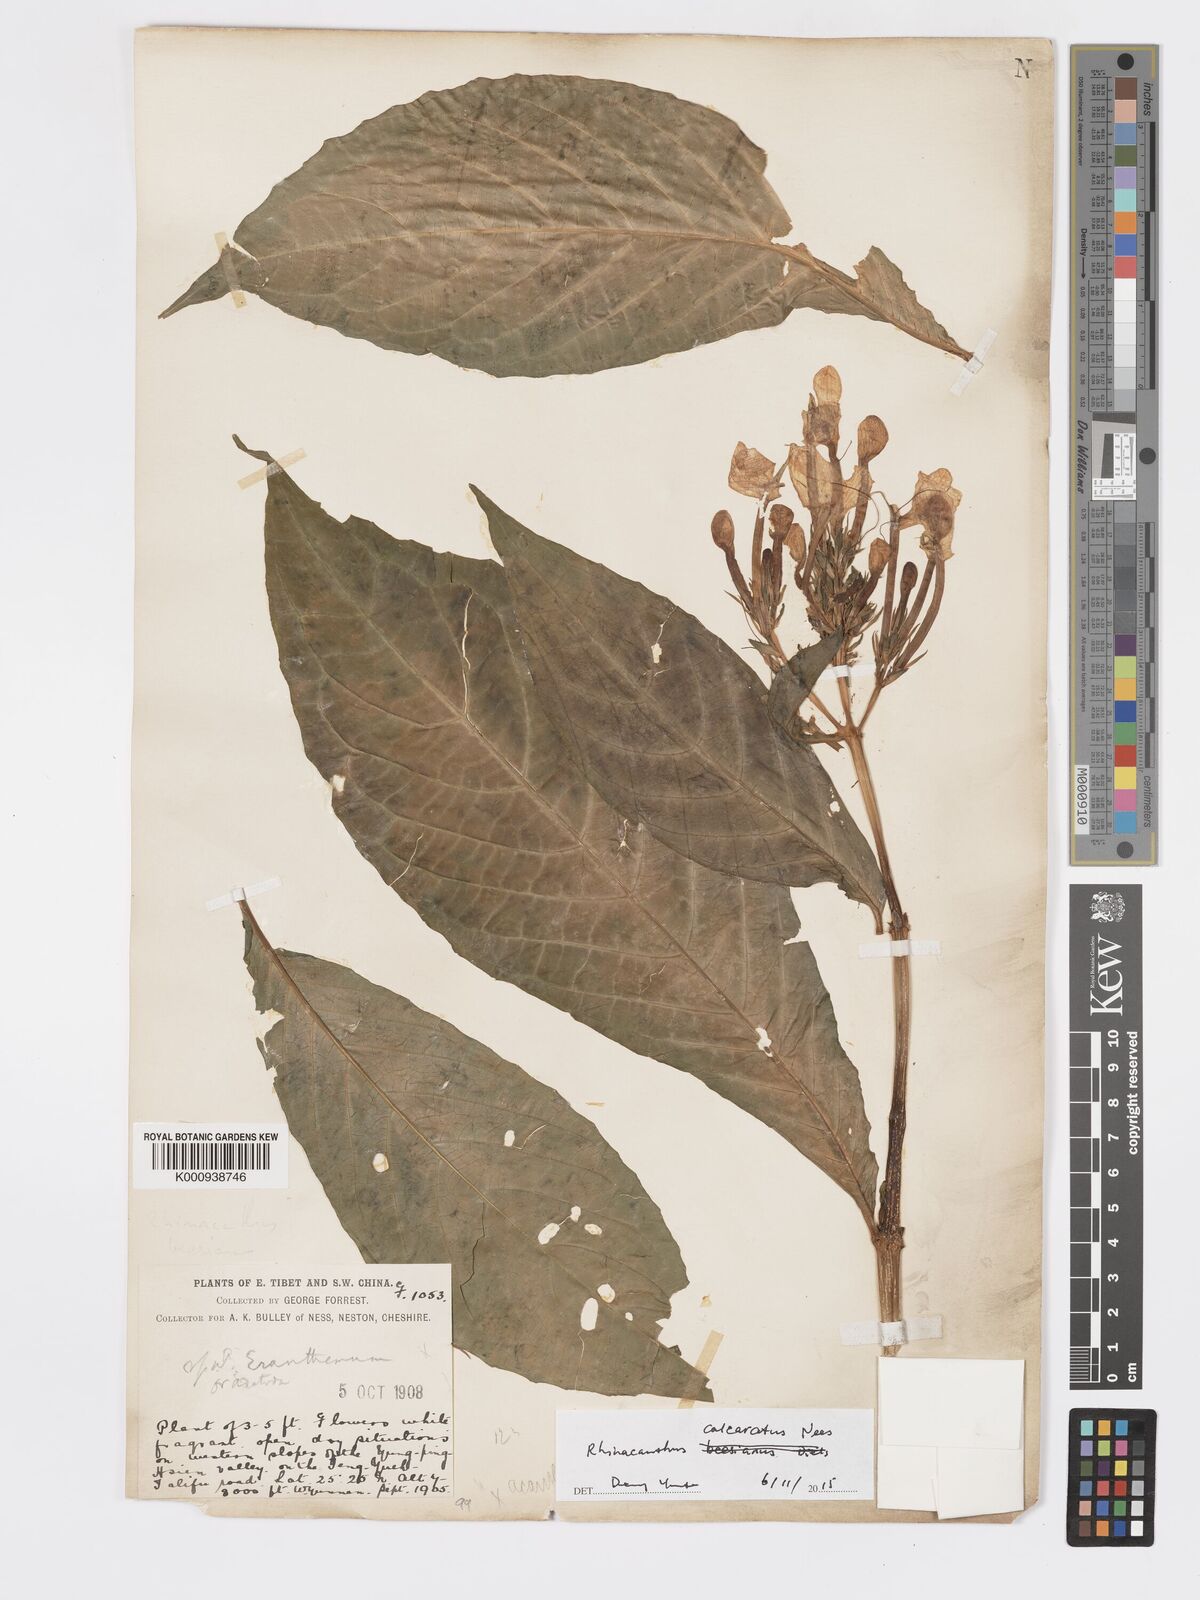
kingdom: Plantae
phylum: Tracheophyta
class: Magnoliopsida
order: Lamiales
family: Acanthaceae
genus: Rhinacanthus
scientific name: Rhinacanthus calcaratus
